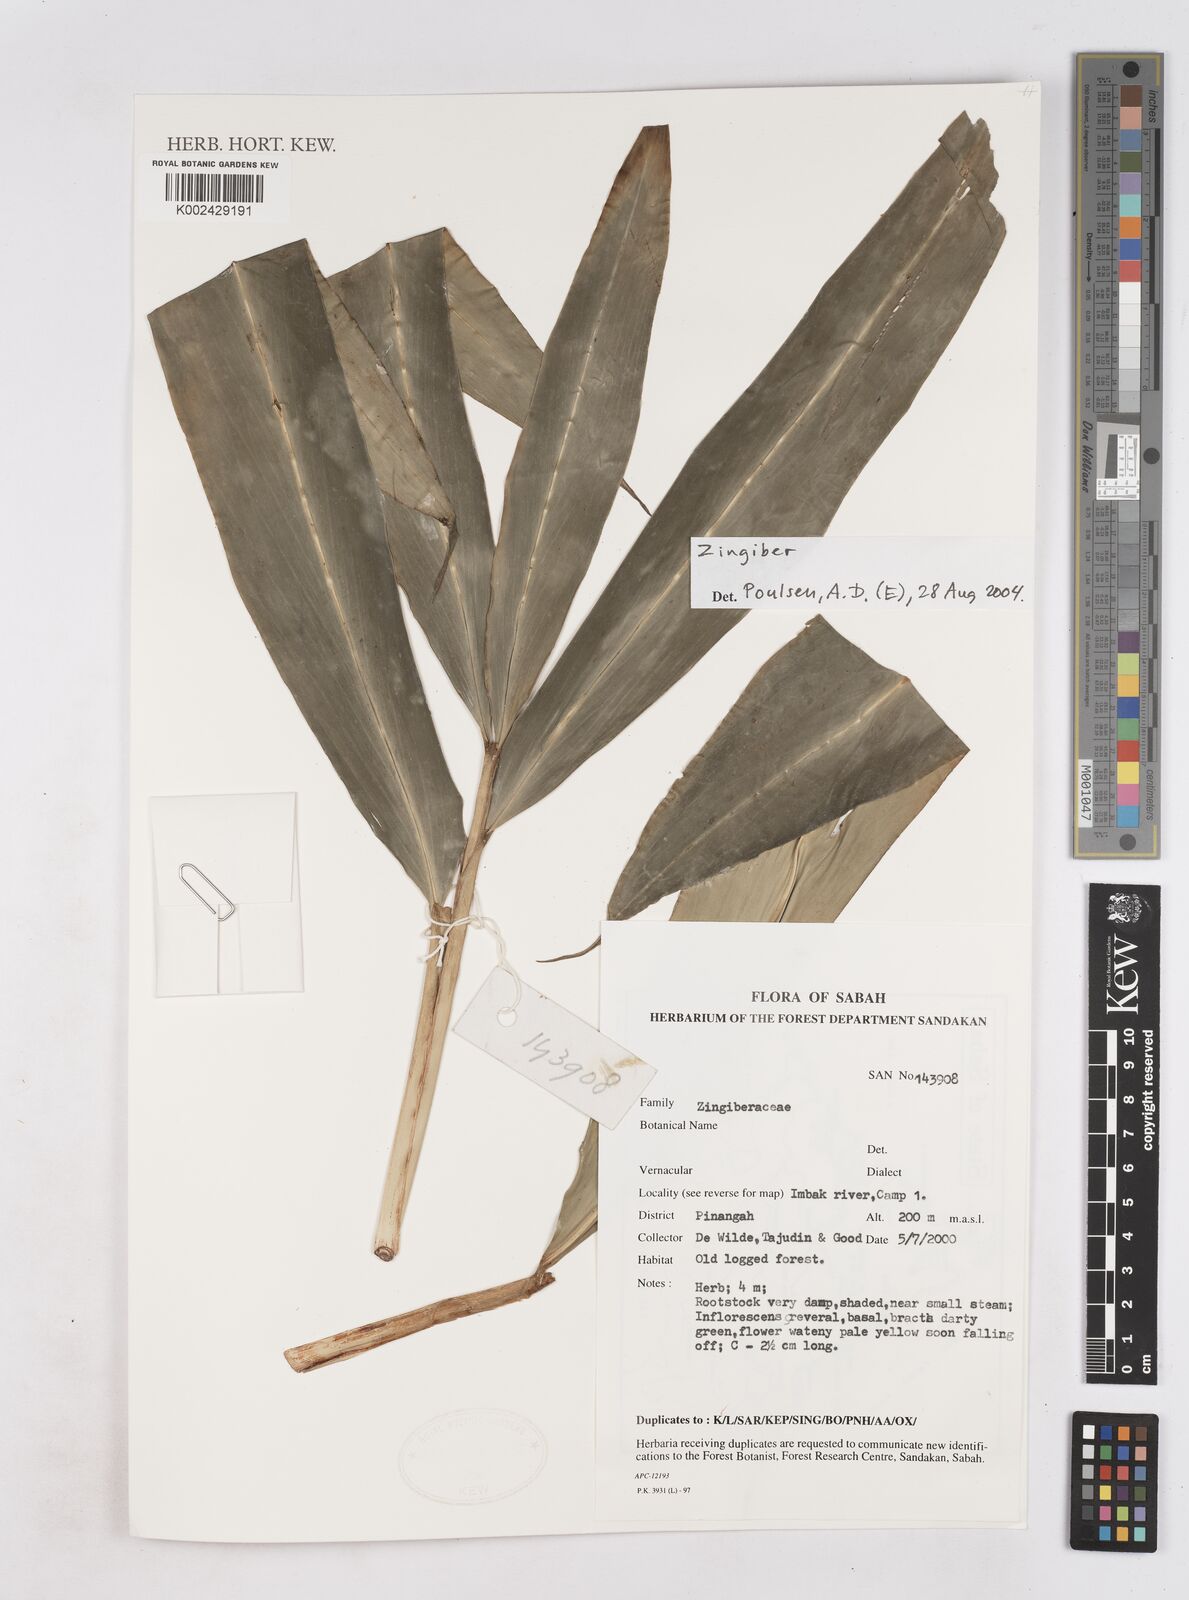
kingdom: Plantae
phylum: Tracheophyta
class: Liliopsida
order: Zingiberales
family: Zingiberaceae
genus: Zingiber
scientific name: Zingiber
